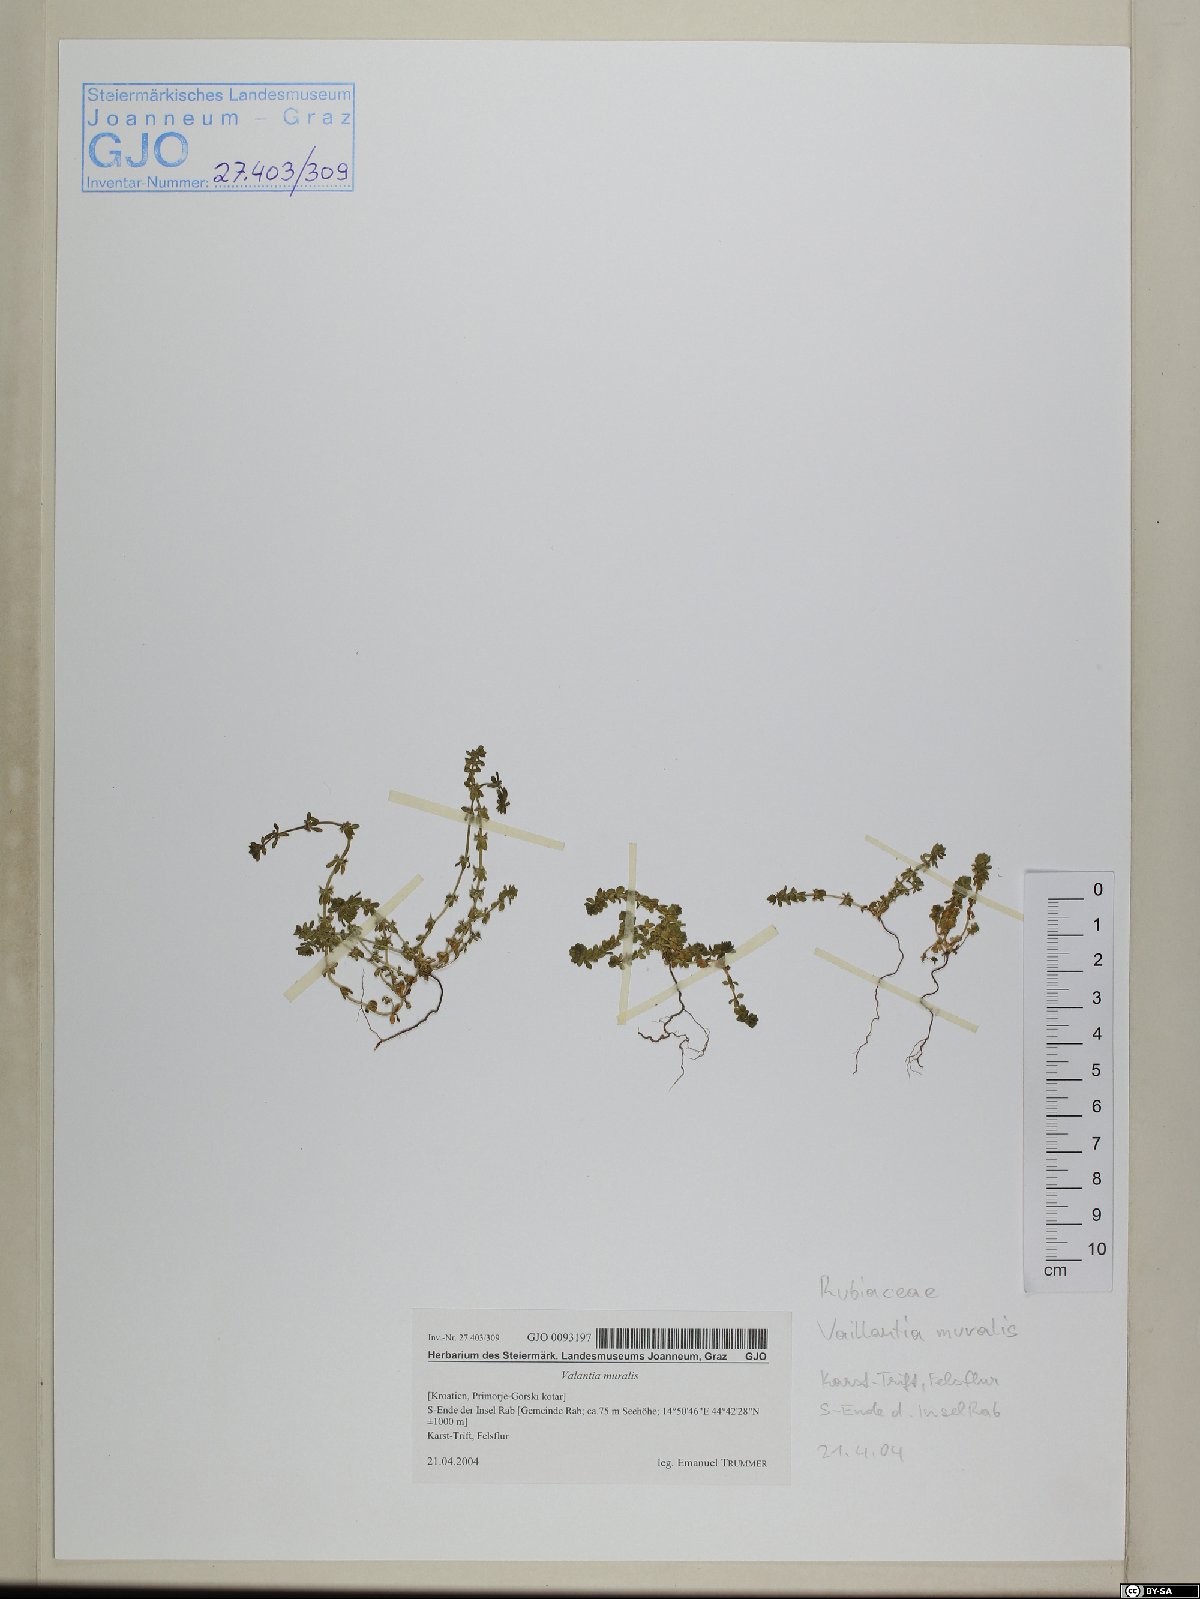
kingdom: Plantae
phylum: Tracheophyta
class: Magnoliopsida
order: Gentianales
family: Rubiaceae
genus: Valantia
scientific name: Valantia muralis
